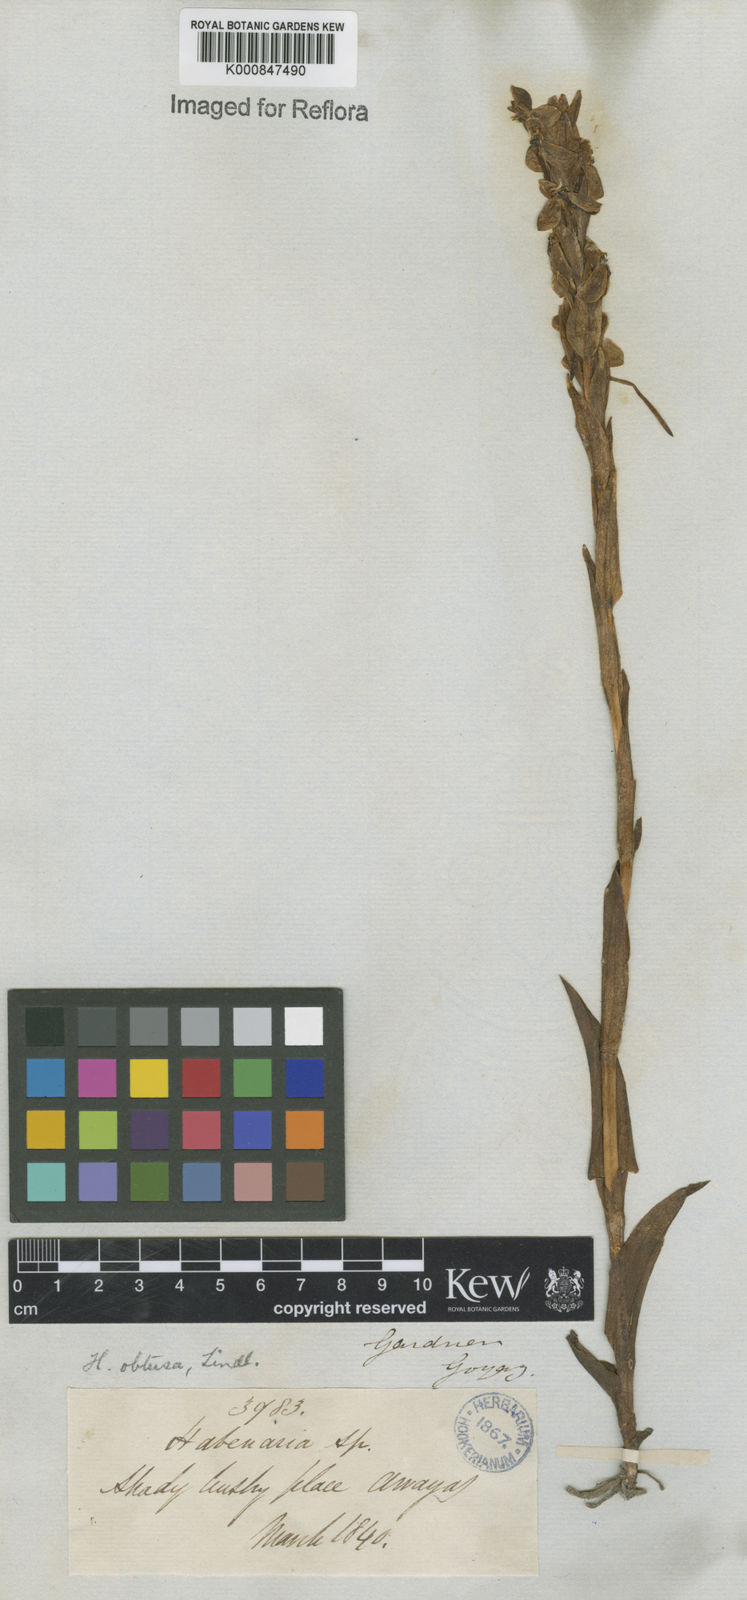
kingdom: Plantae
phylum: Tracheophyta
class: Liliopsida
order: Asparagales
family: Orchidaceae
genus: Habenaria
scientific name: Habenaria obtusa
